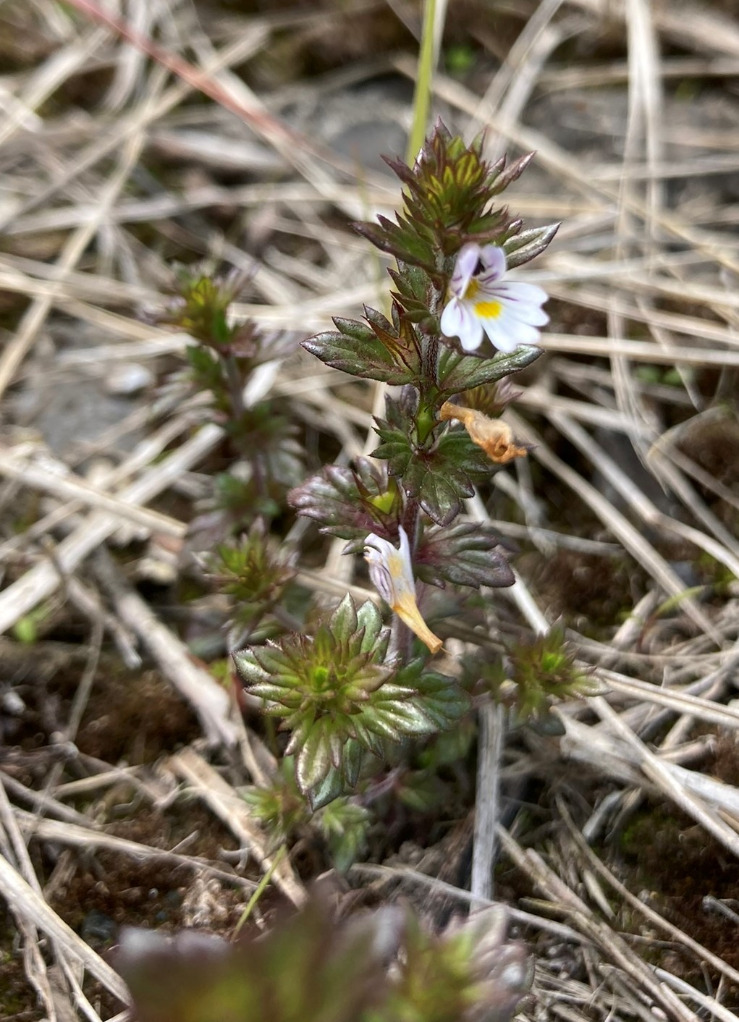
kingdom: Plantae
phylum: Tracheophyta
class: Magnoliopsida
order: Lamiales
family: Orobanchaceae
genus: Euphrasia
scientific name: Euphrasia nemorosa
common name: Kort øjentrøst
